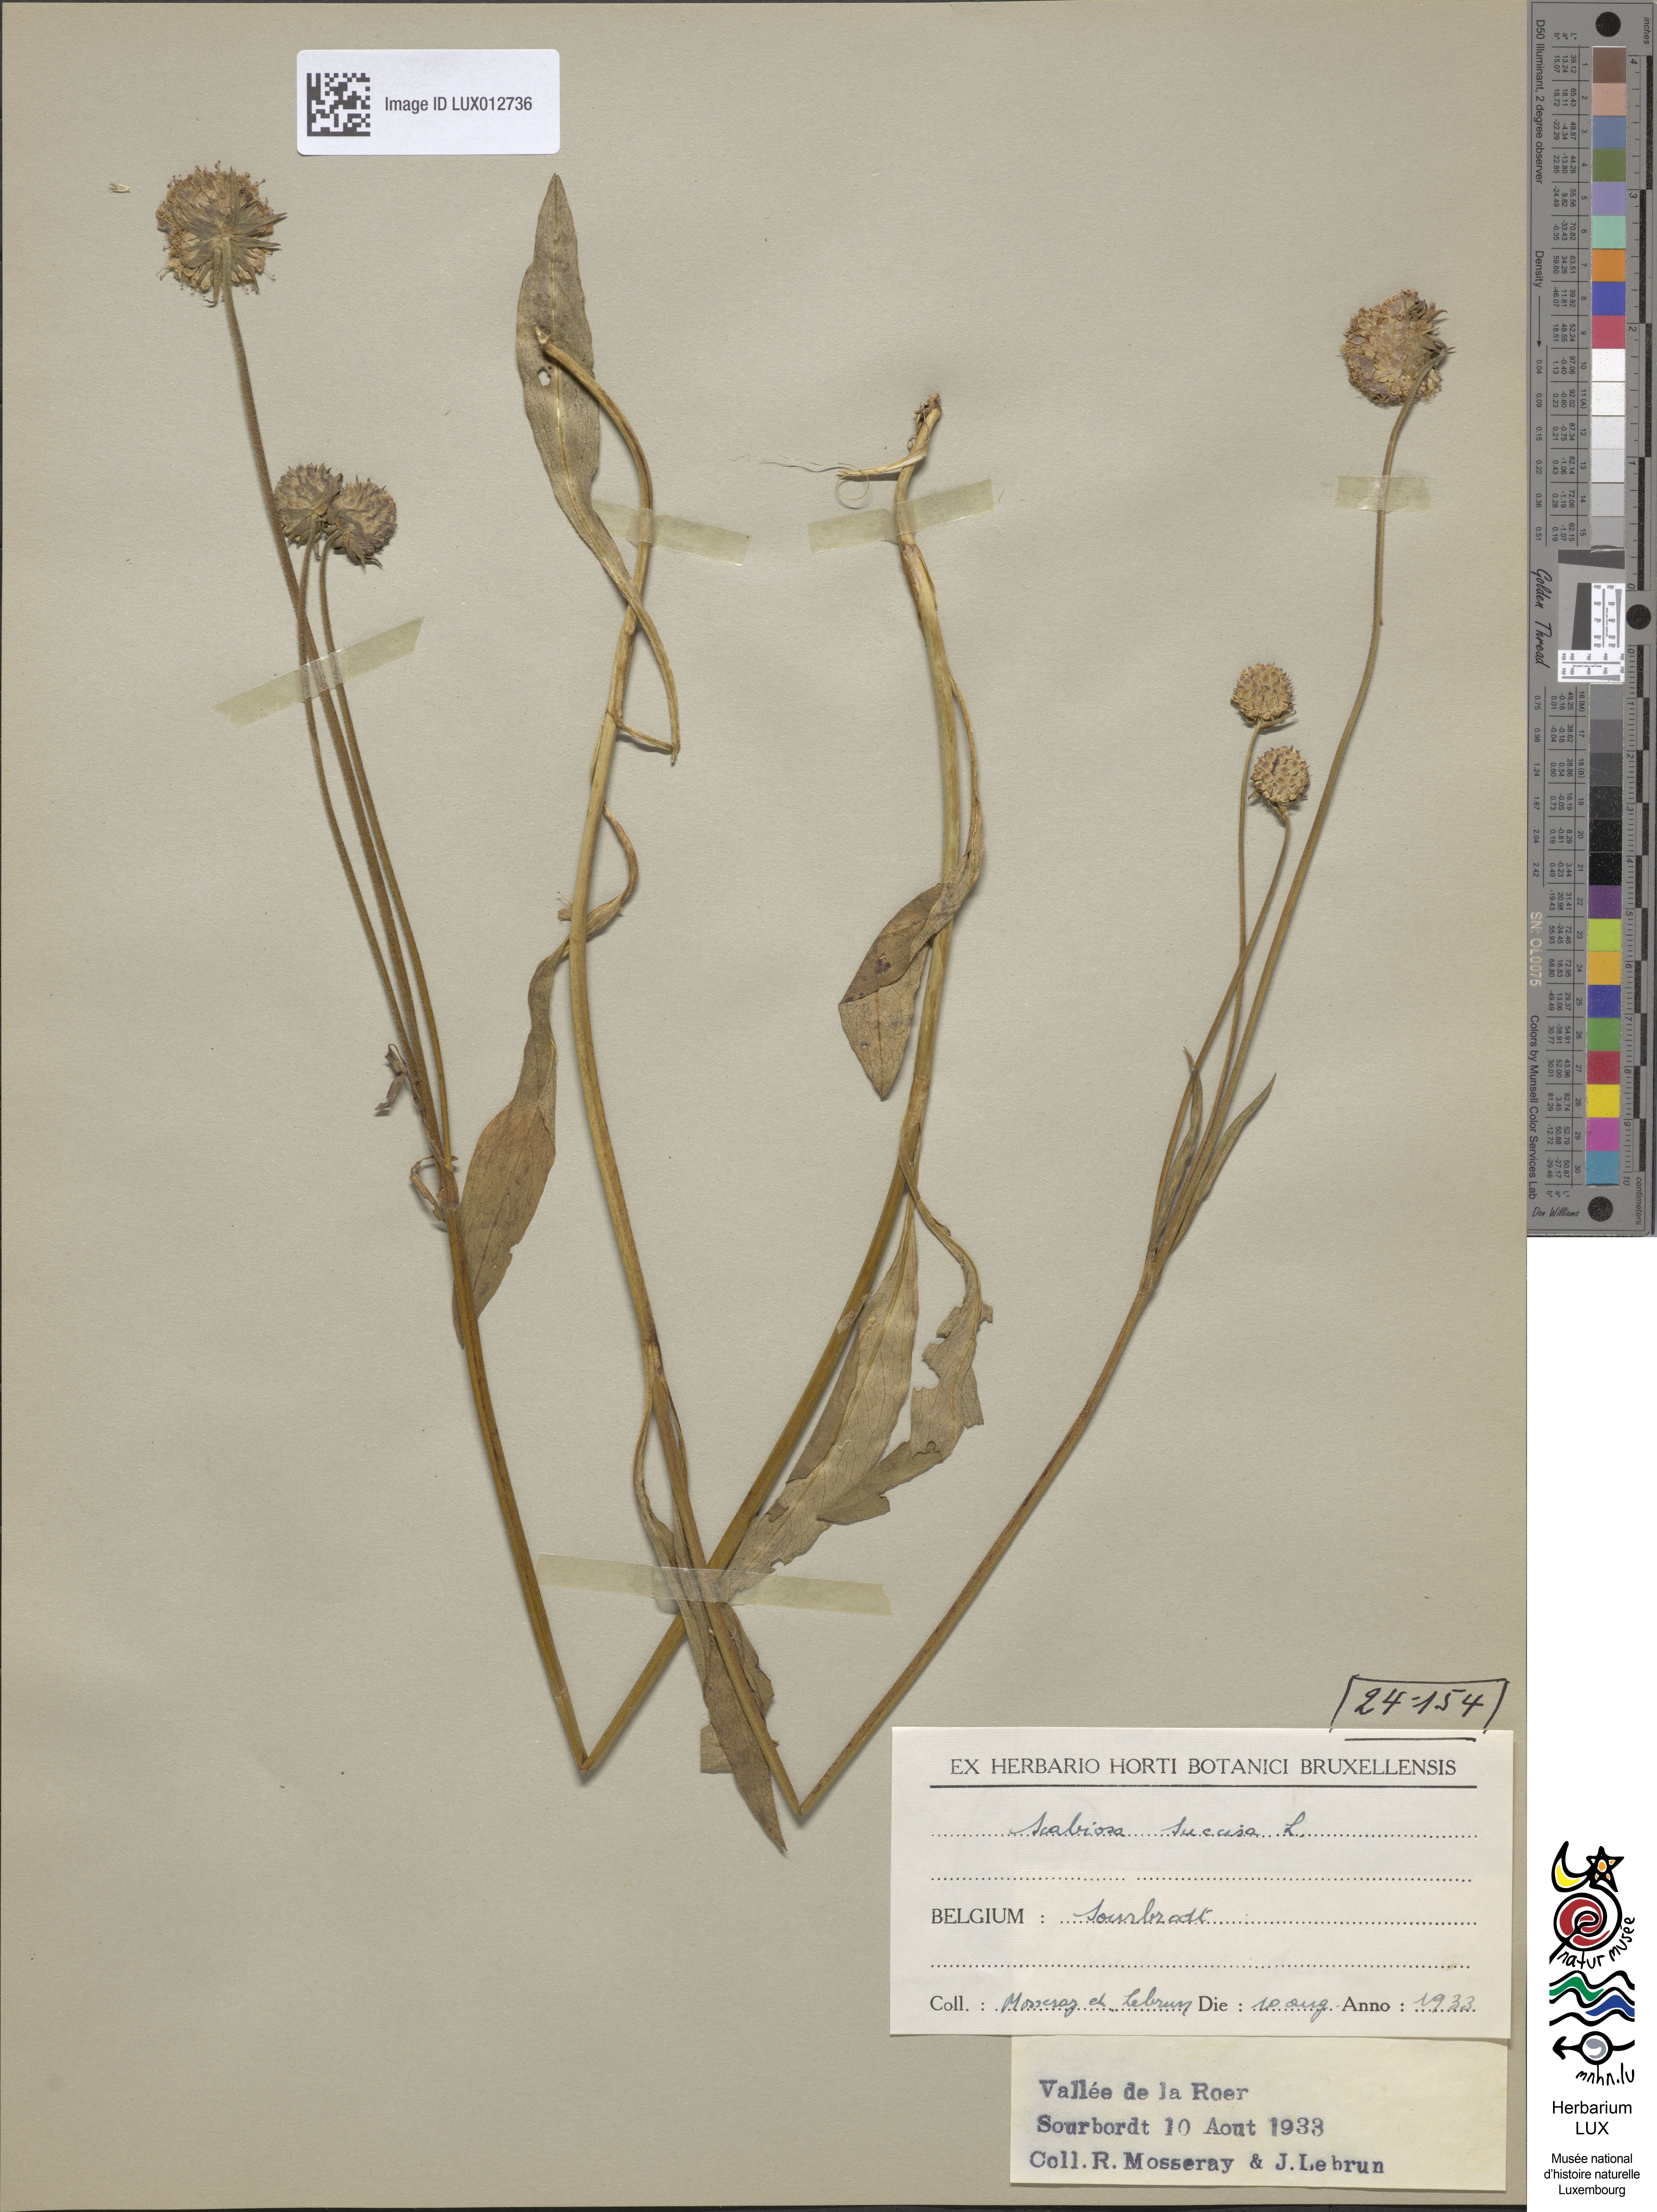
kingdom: Plantae
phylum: Tracheophyta
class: Magnoliopsida
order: Dipsacales
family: Caprifoliaceae
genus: Succisa
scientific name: Succisa pratensis
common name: Devil's-bit
